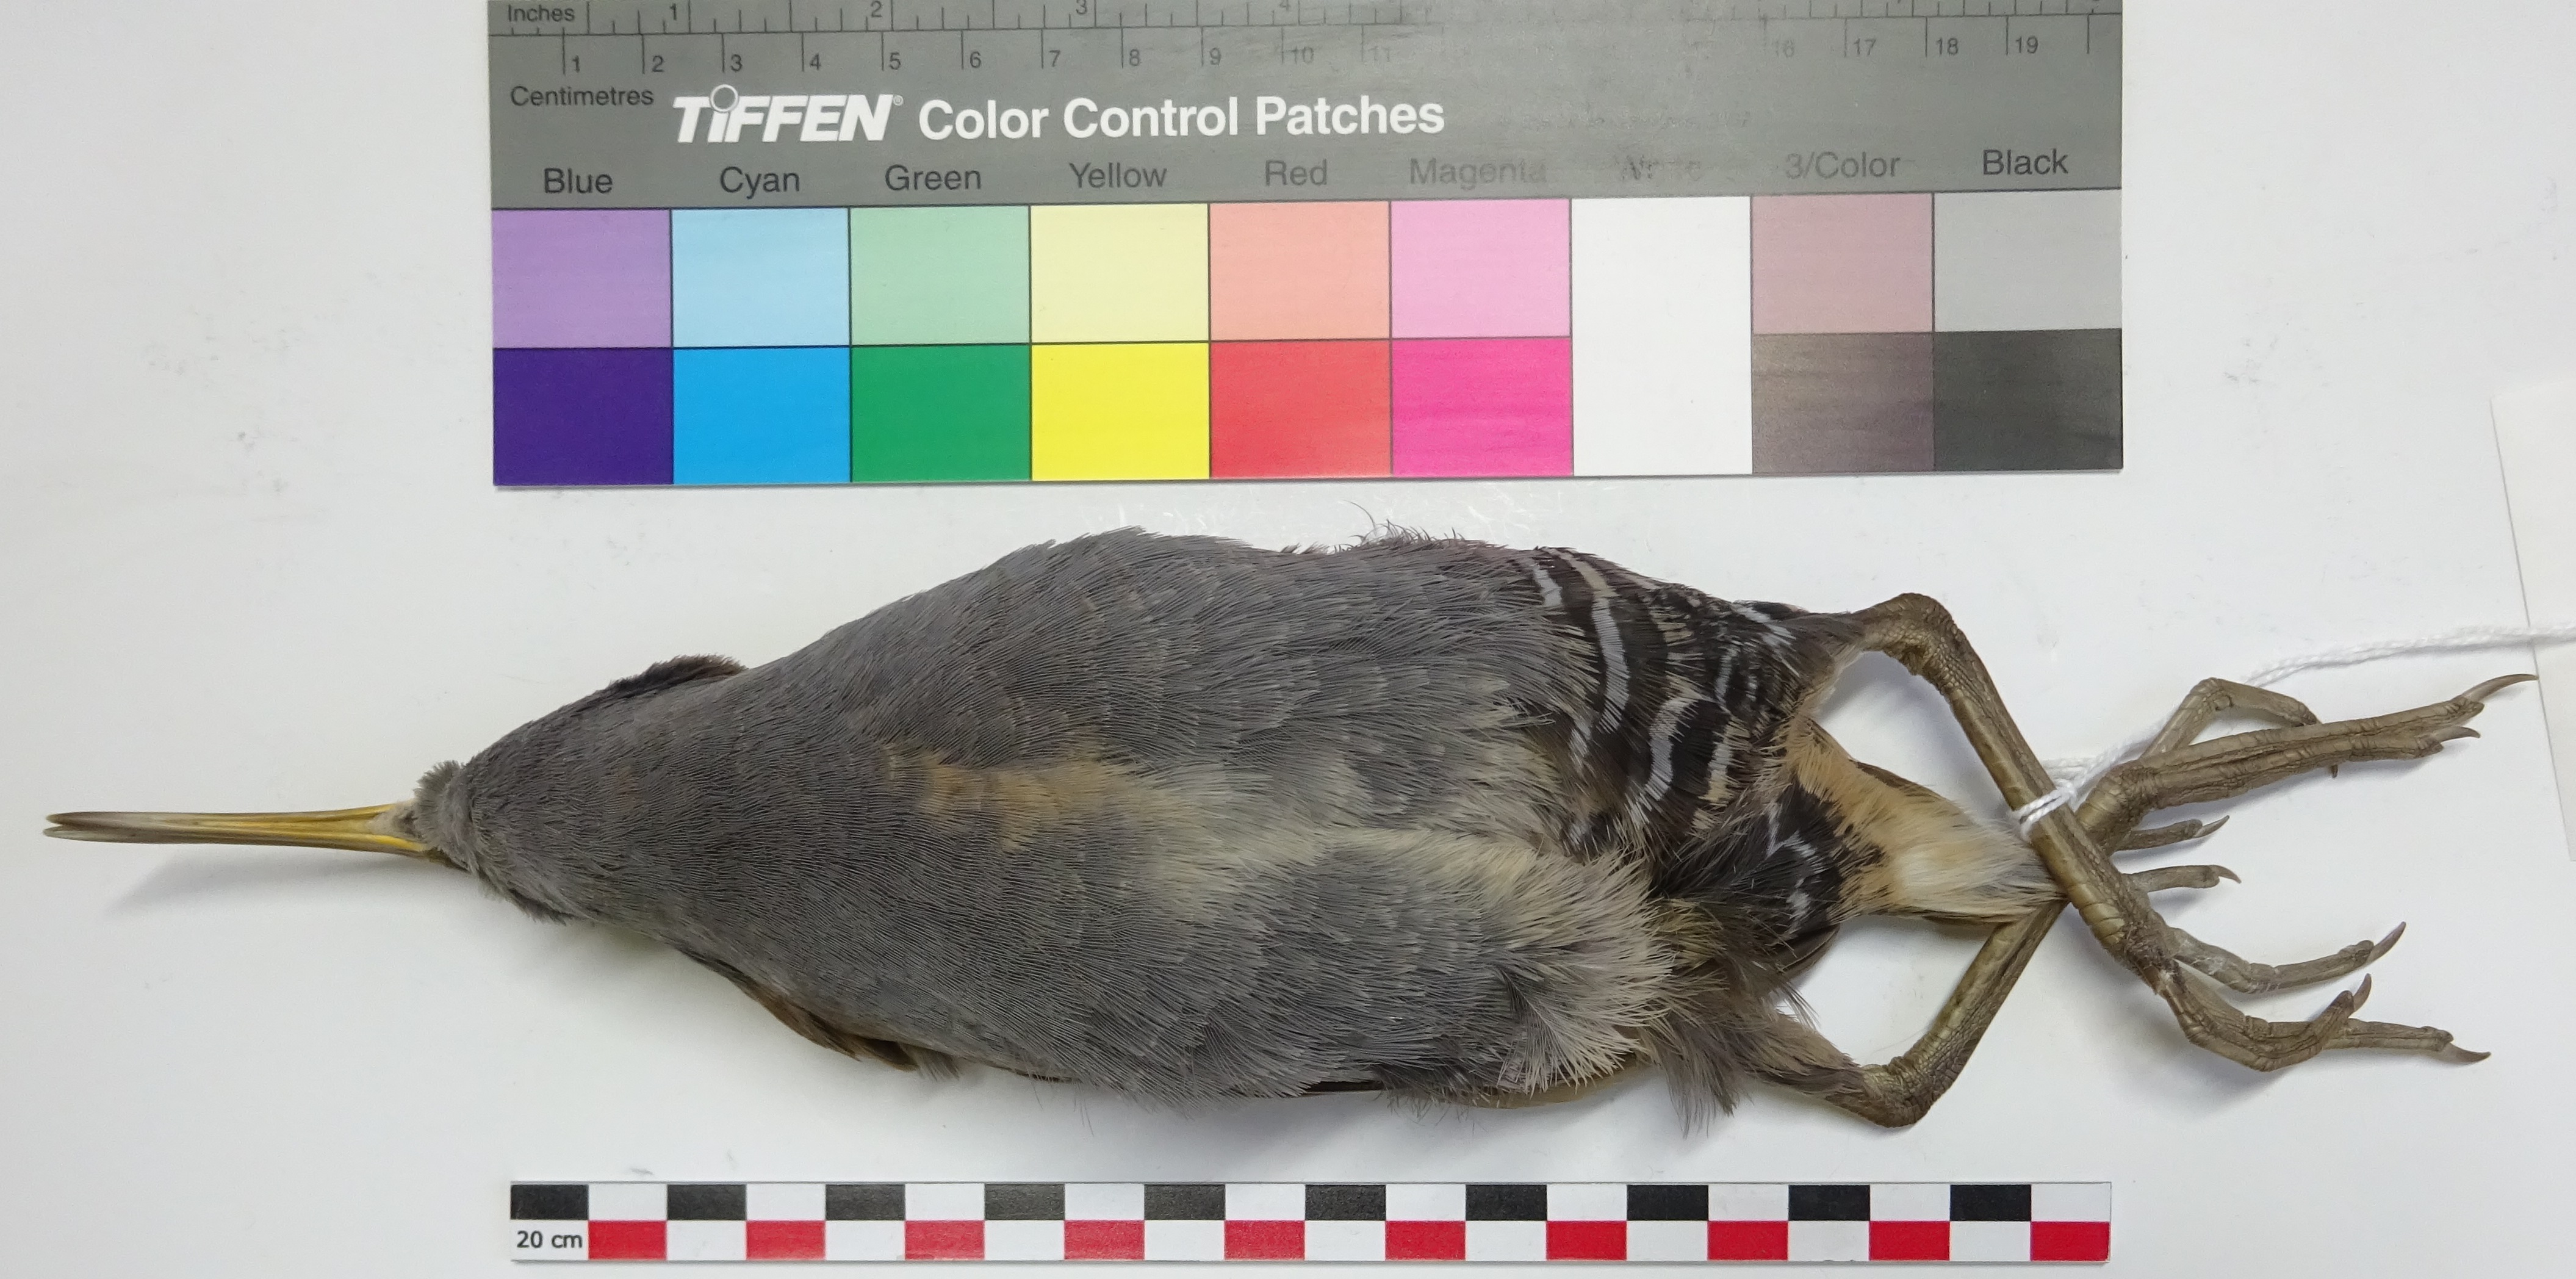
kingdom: Animalia
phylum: Chordata
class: Aves
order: Gruiformes
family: Rallidae
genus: Rallus
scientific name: Rallus aquaticus
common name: Water rail
